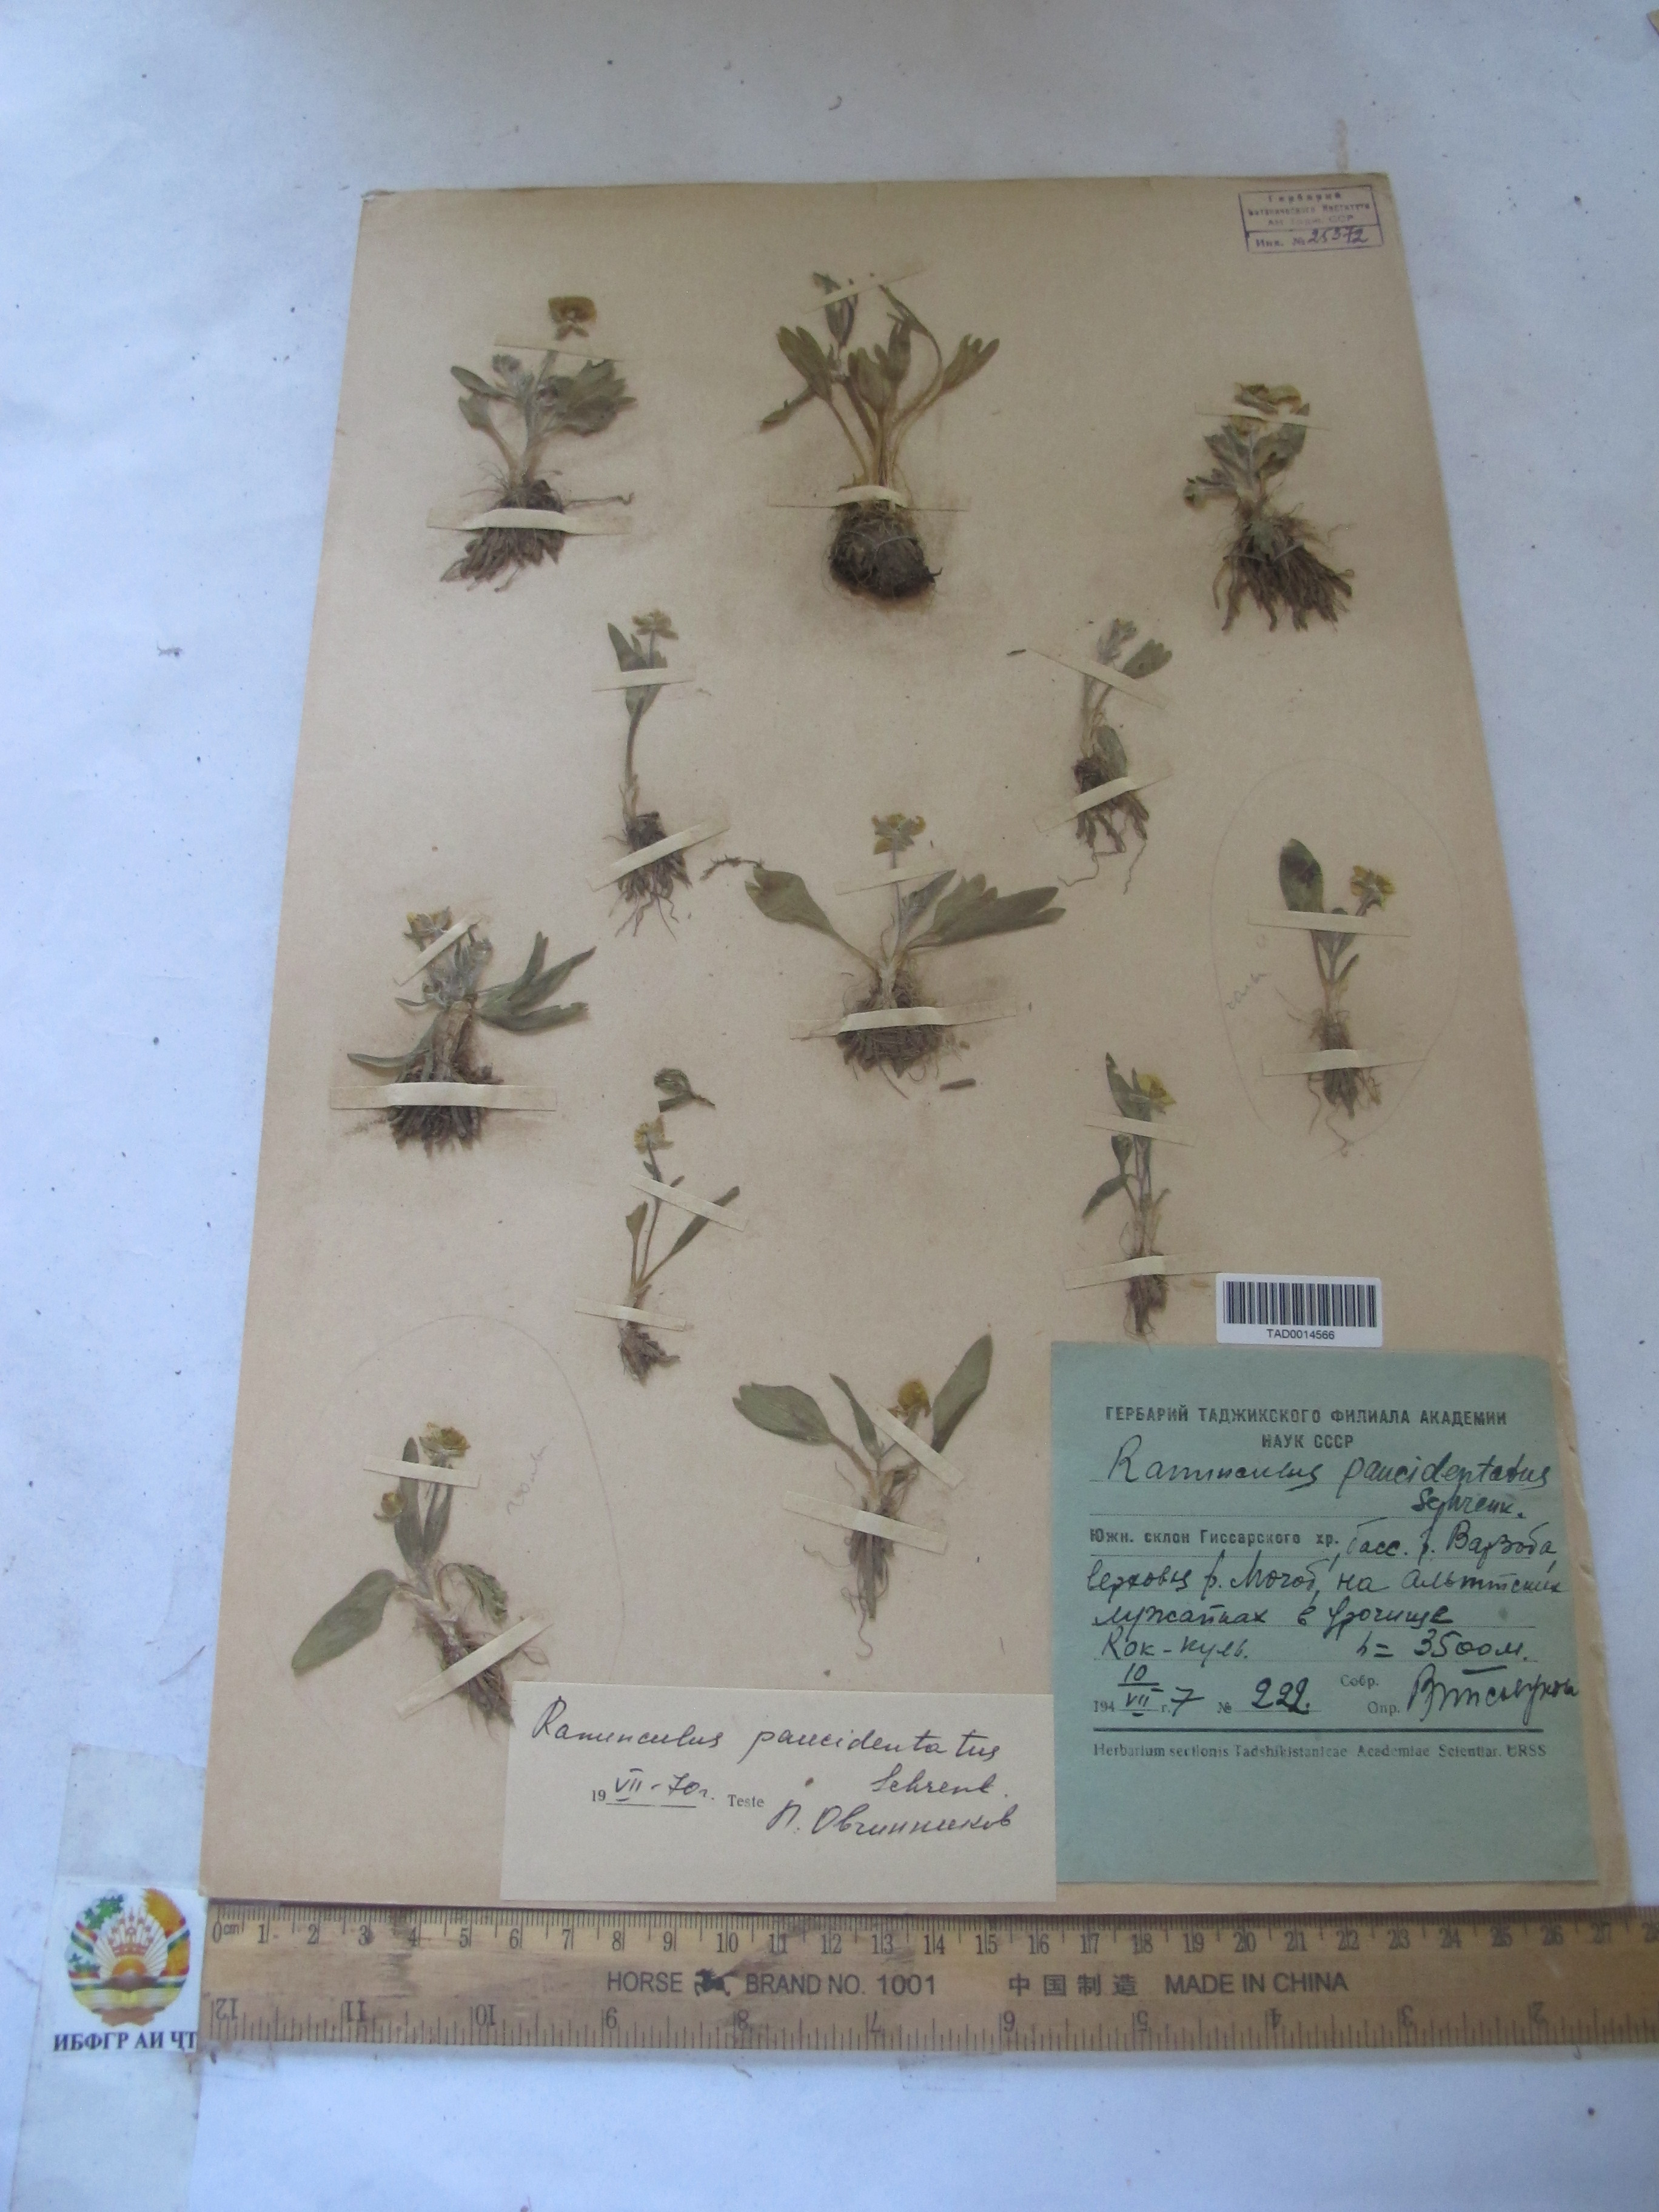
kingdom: Plantae
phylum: Tracheophyta
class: Magnoliopsida
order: Ranunculales
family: Ranunculaceae
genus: Ranunculus
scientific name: Ranunculus paucidentatus
